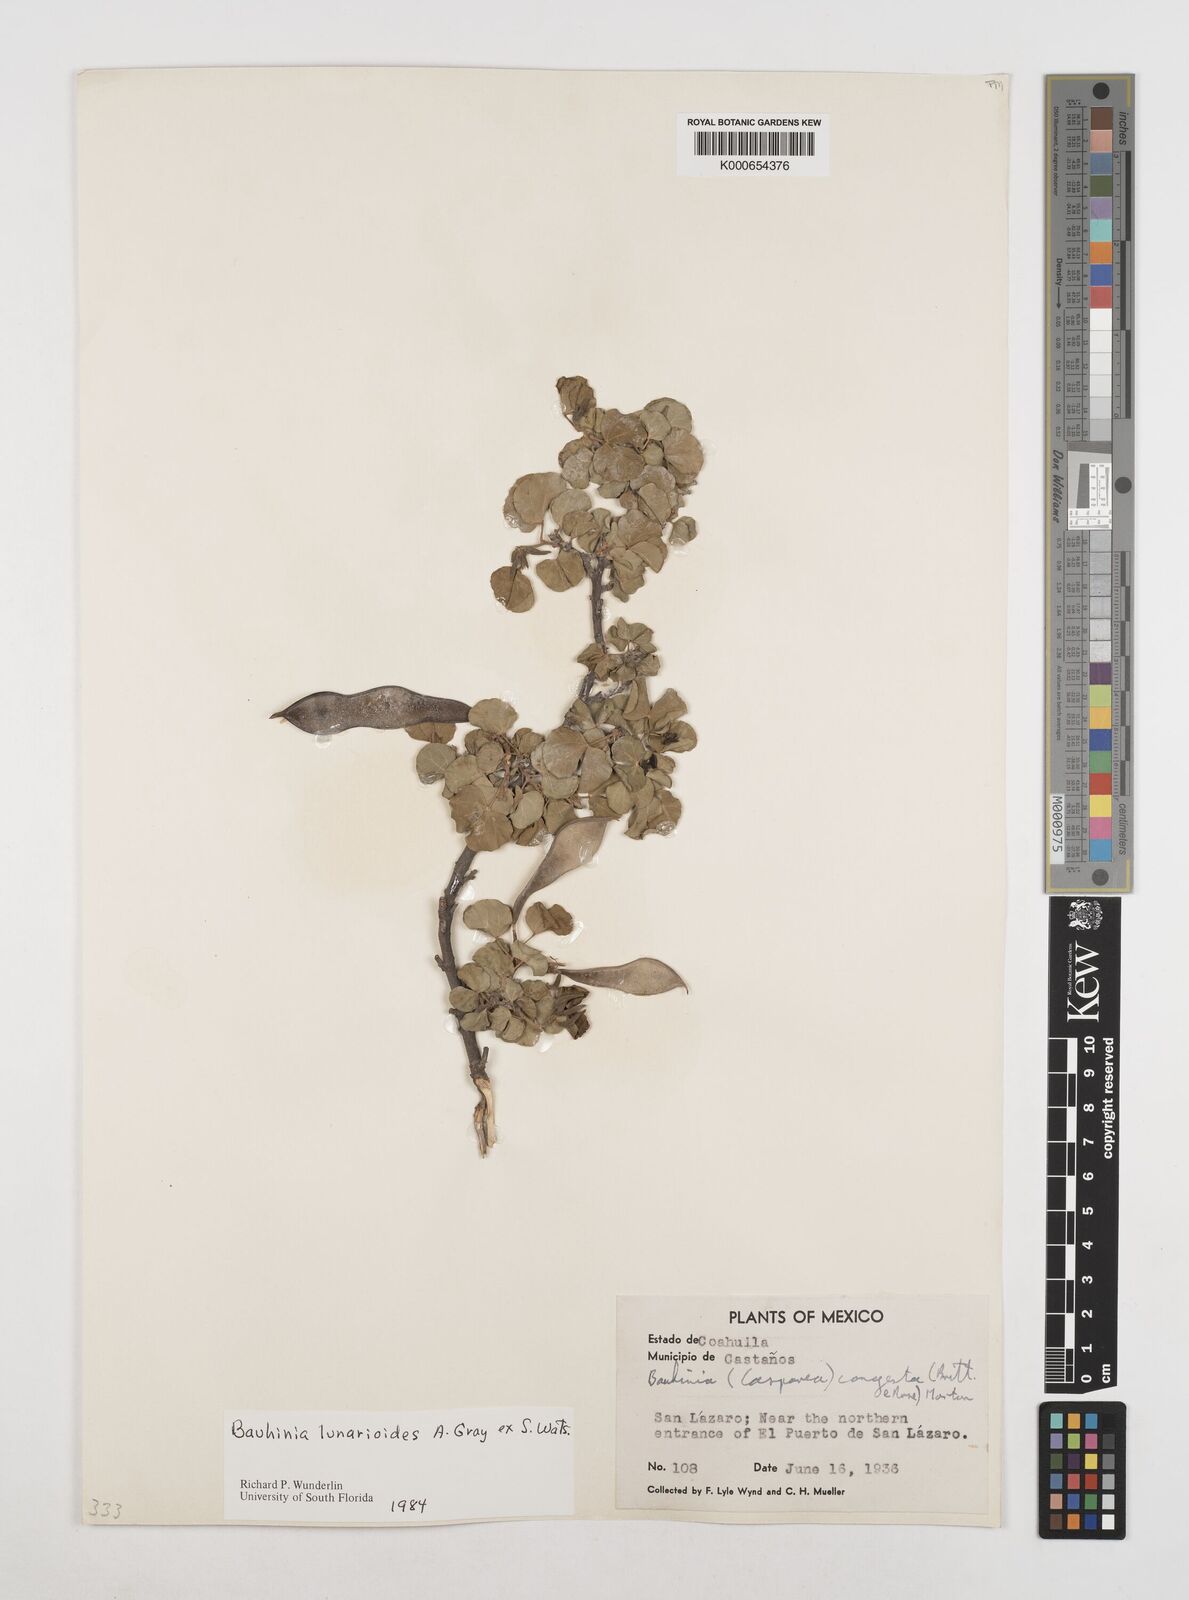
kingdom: Plantae
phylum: Tracheophyta
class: Magnoliopsida
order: Fabales
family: Fabaceae
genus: Bauhinia
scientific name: Bauhinia lunarioides
